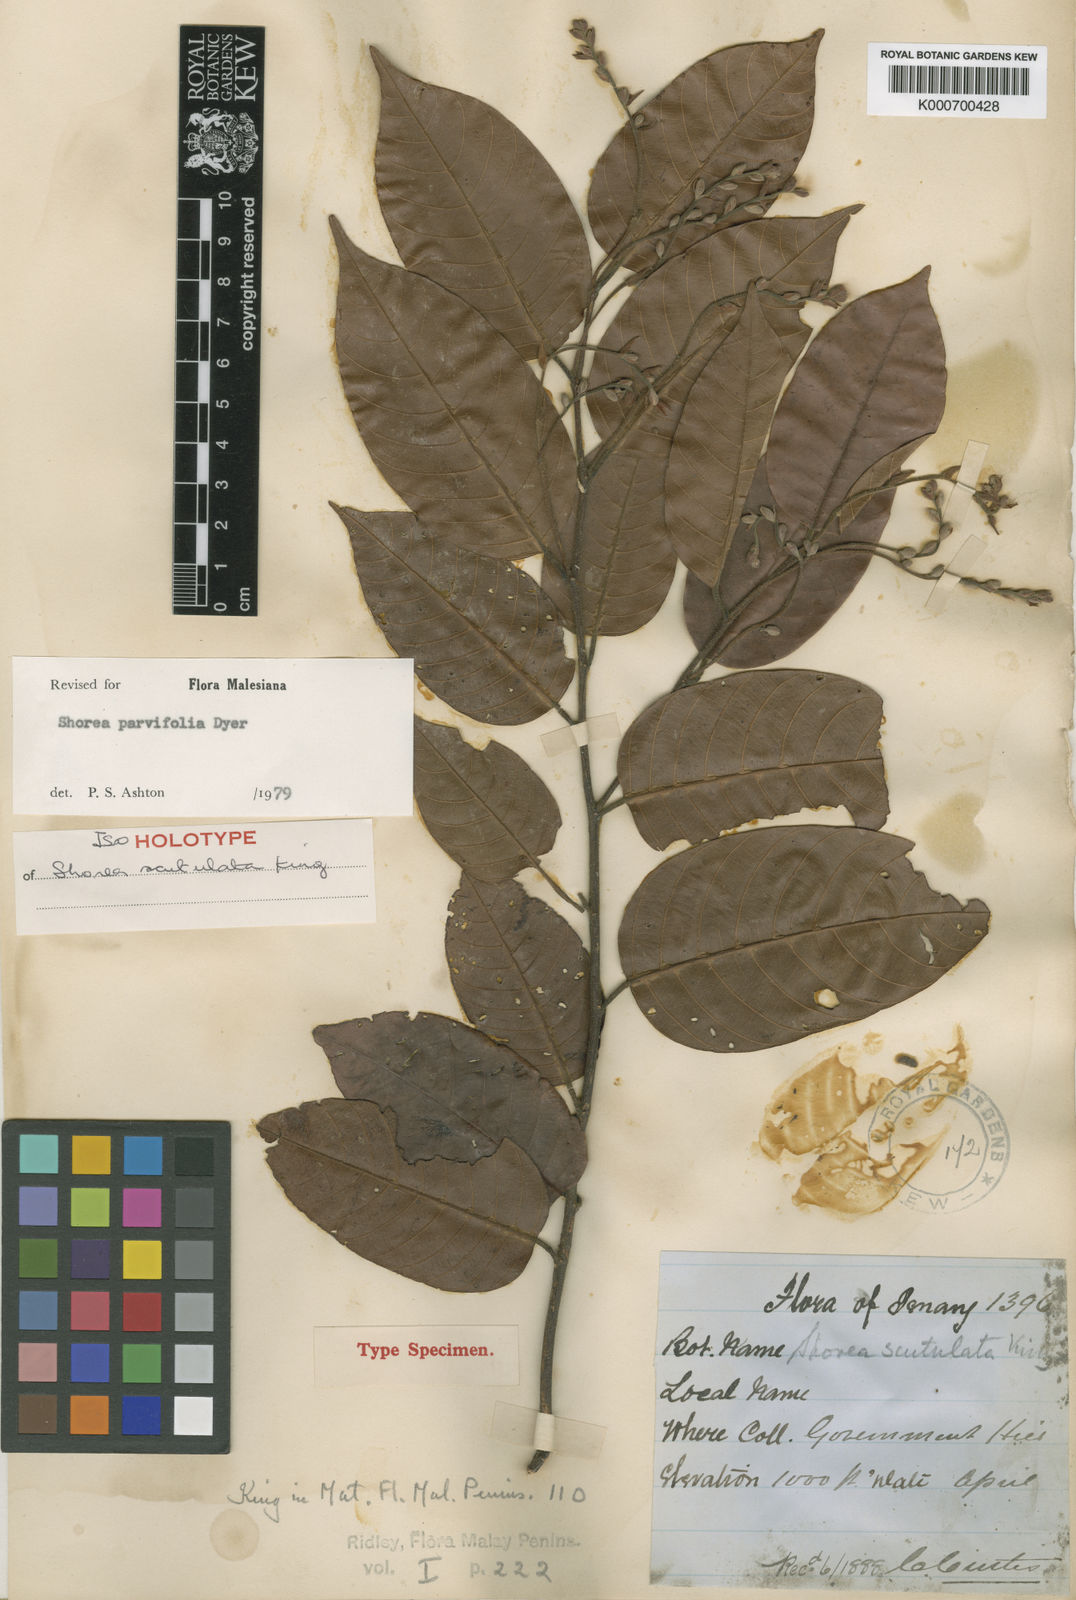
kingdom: Plantae
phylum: Tracheophyta
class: Magnoliopsida
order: Malvales
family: Dipterocarpaceae
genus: Shorea
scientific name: Shorea parvifolia
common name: Light red meranti
